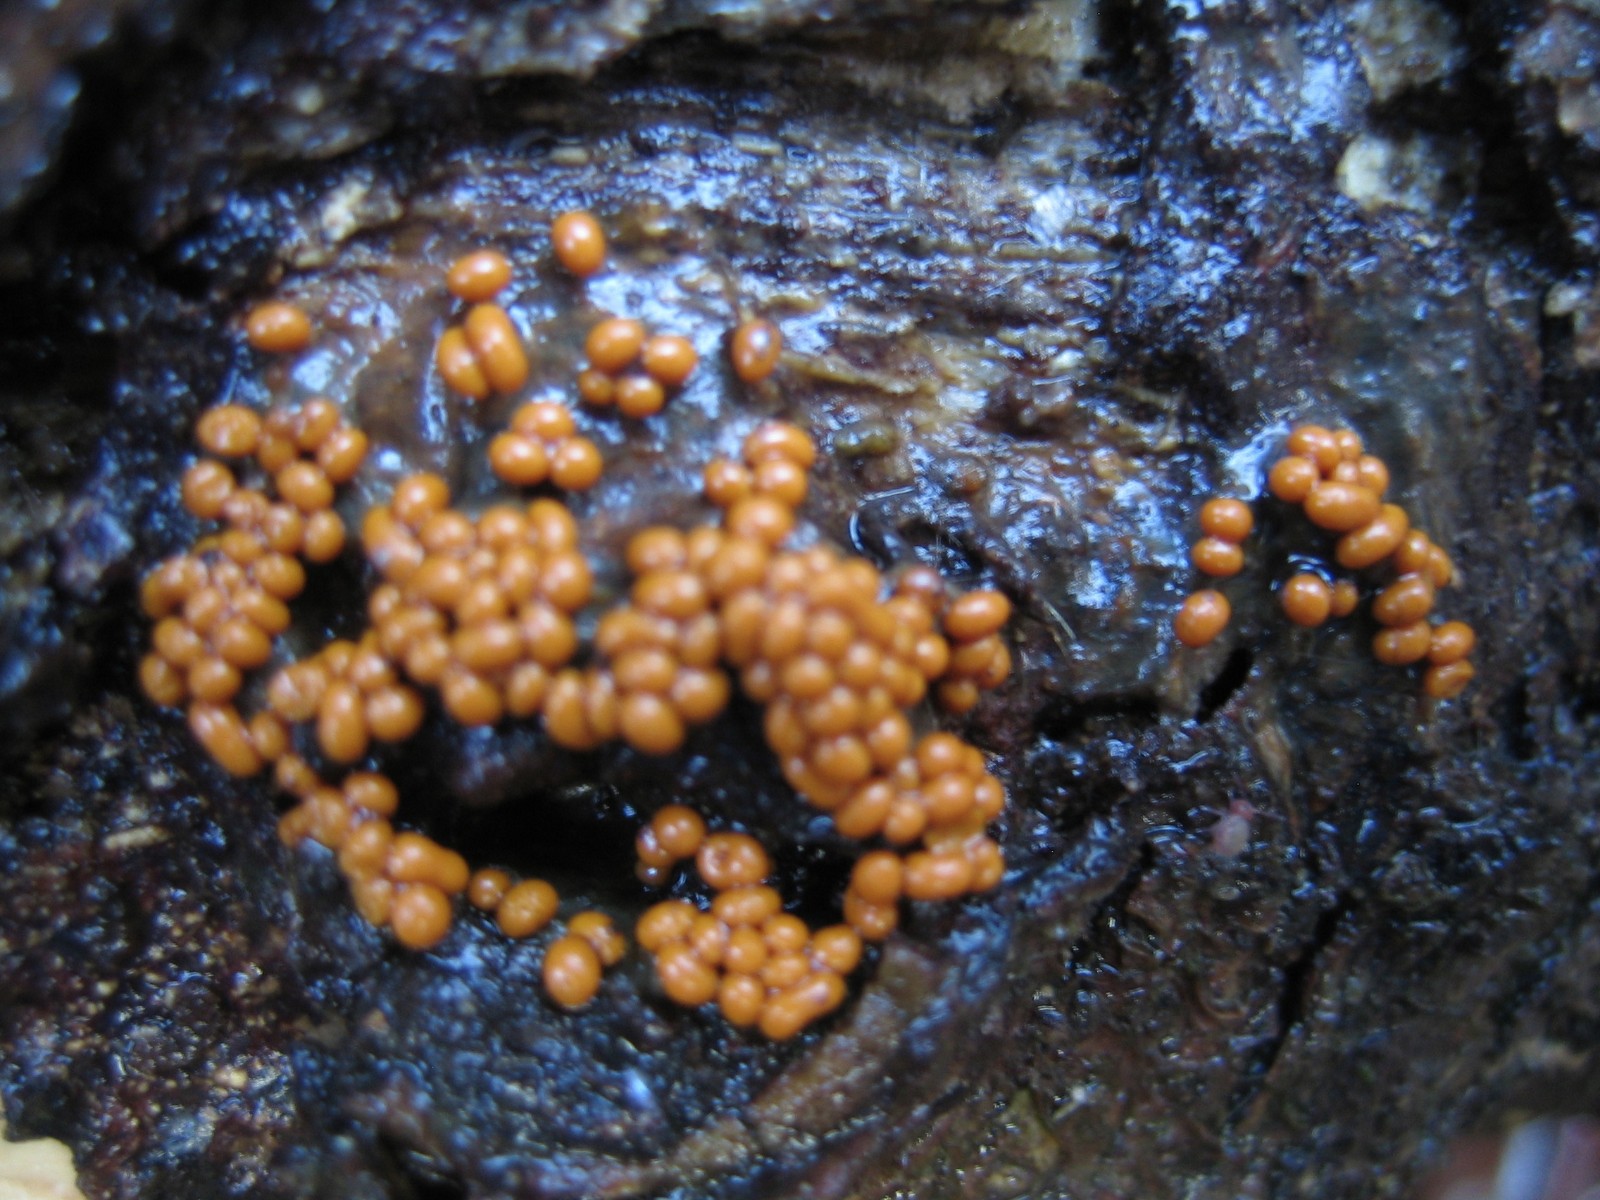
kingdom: Protozoa
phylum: Mycetozoa
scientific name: Mycetozoa
